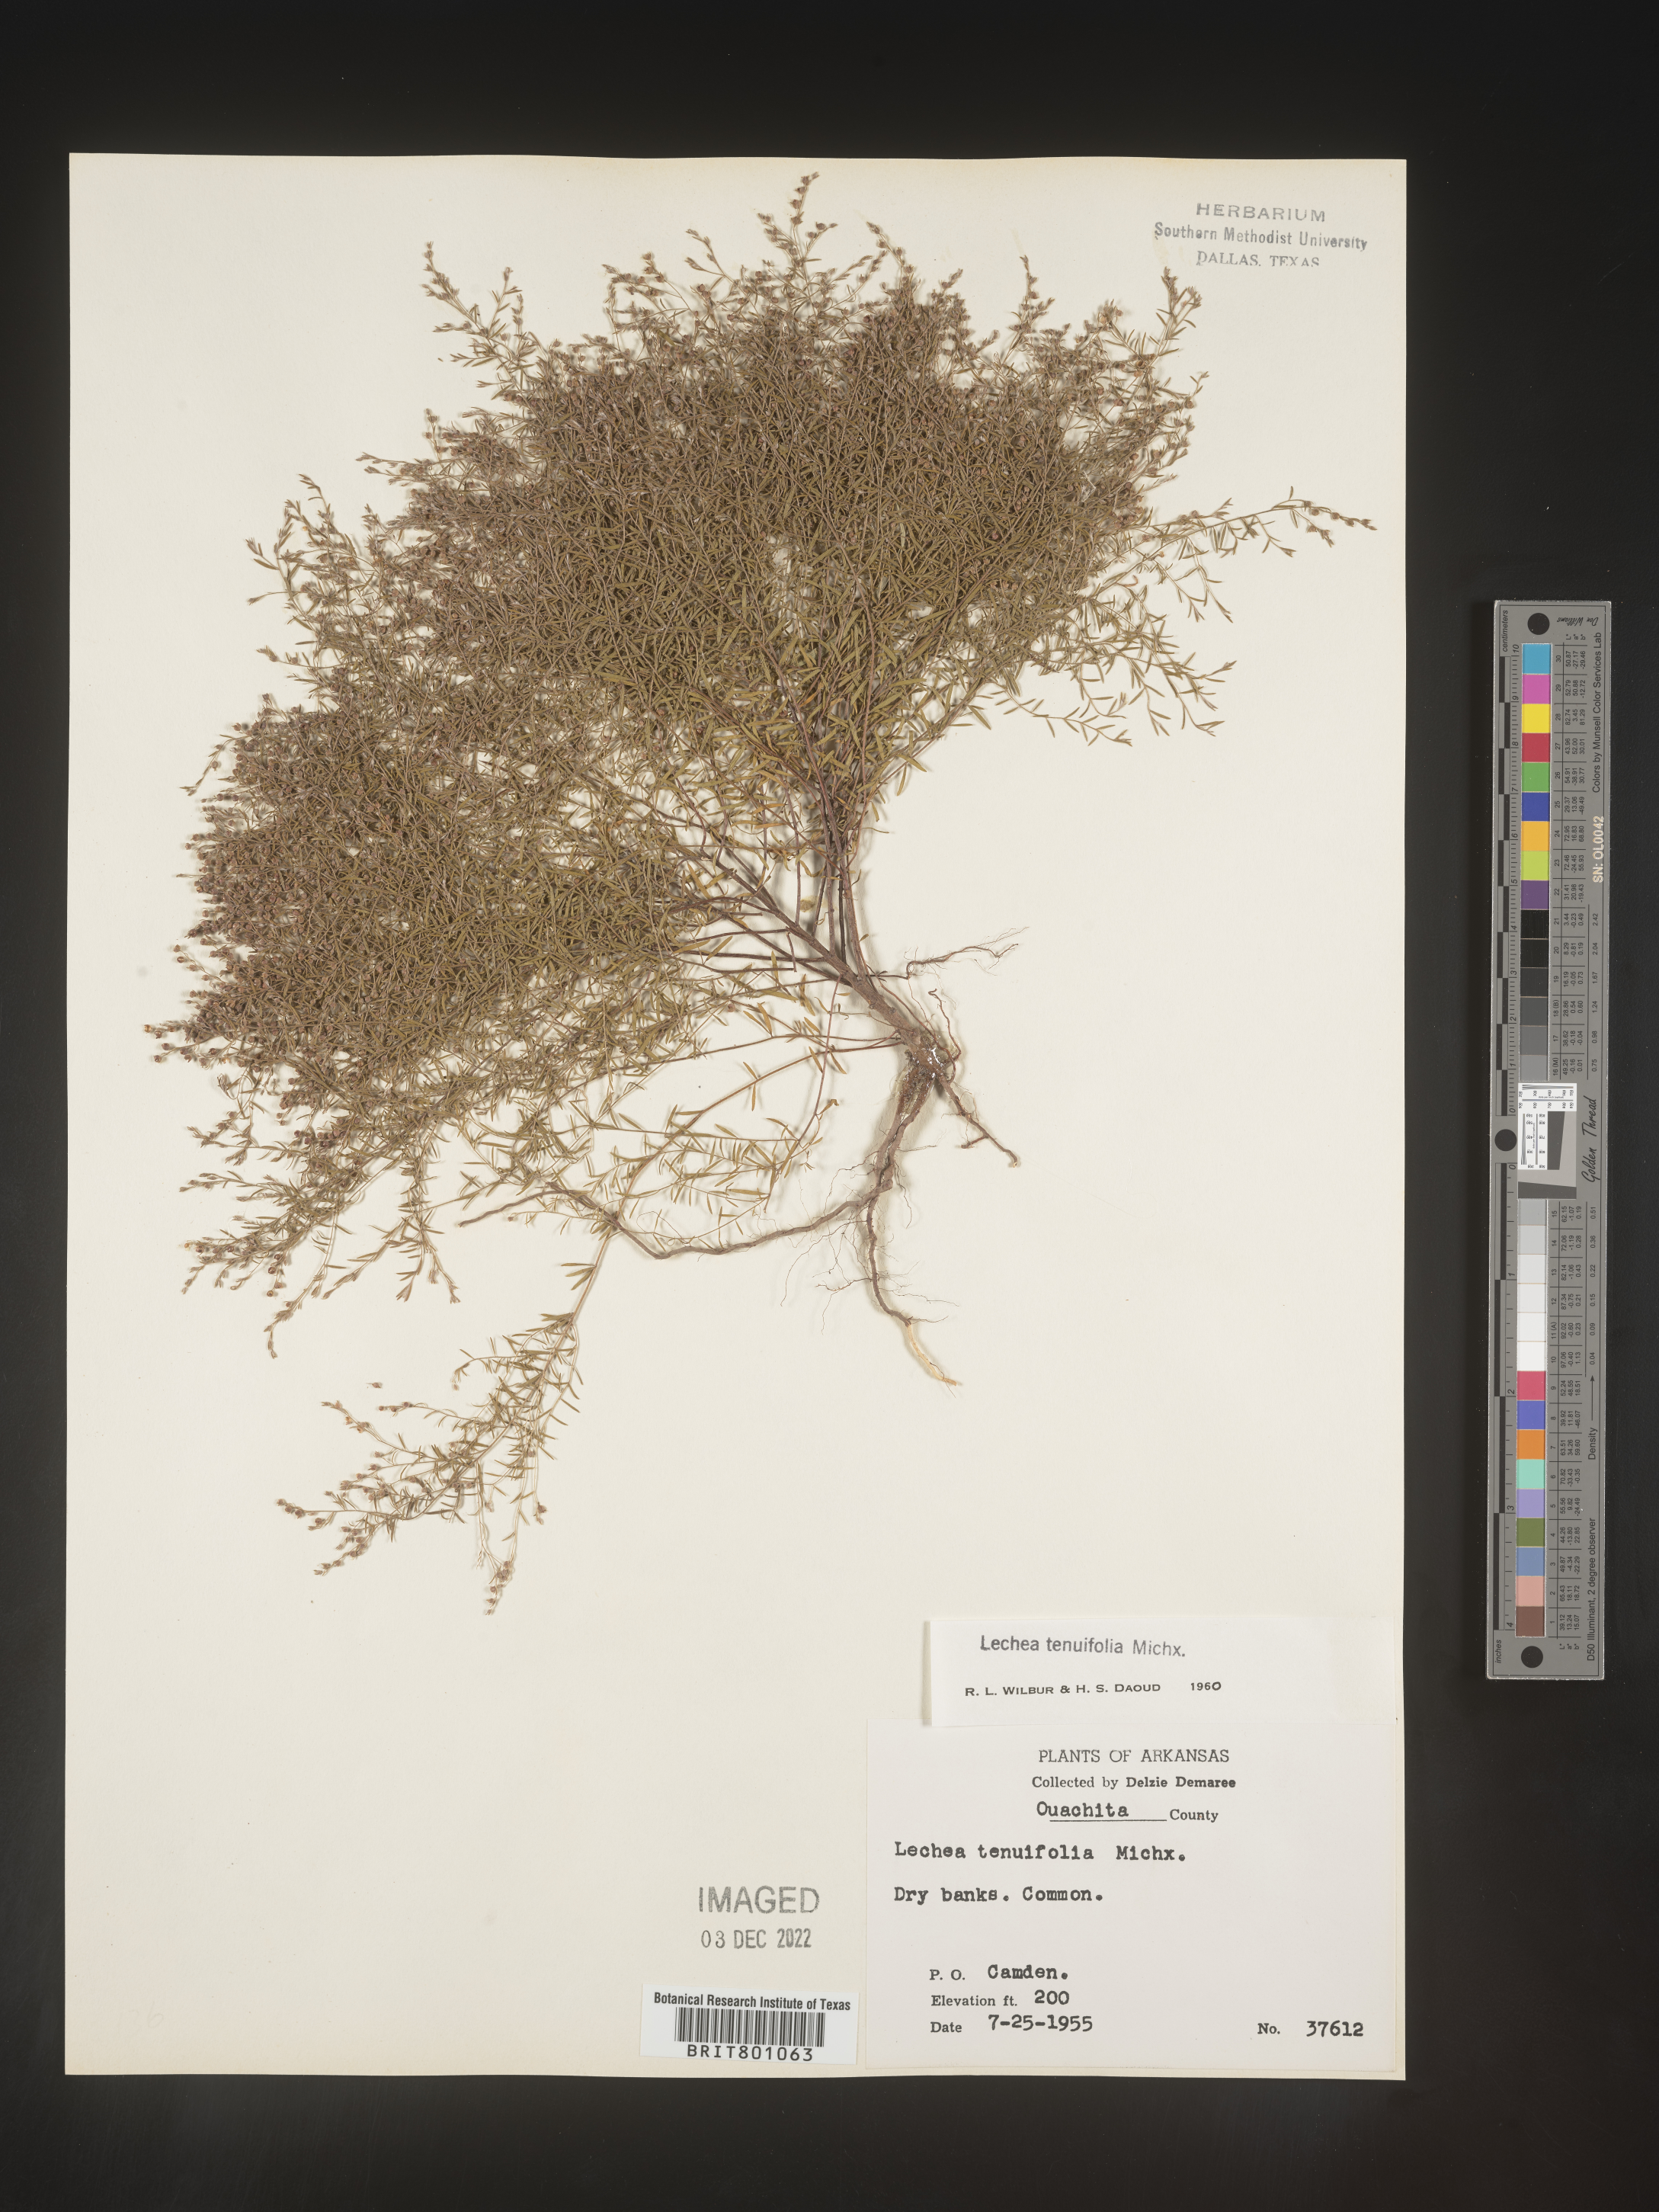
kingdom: Plantae
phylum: Tracheophyta
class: Magnoliopsida
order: Malvales
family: Cistaceae
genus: Lechea
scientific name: Lechea tenuifolia
